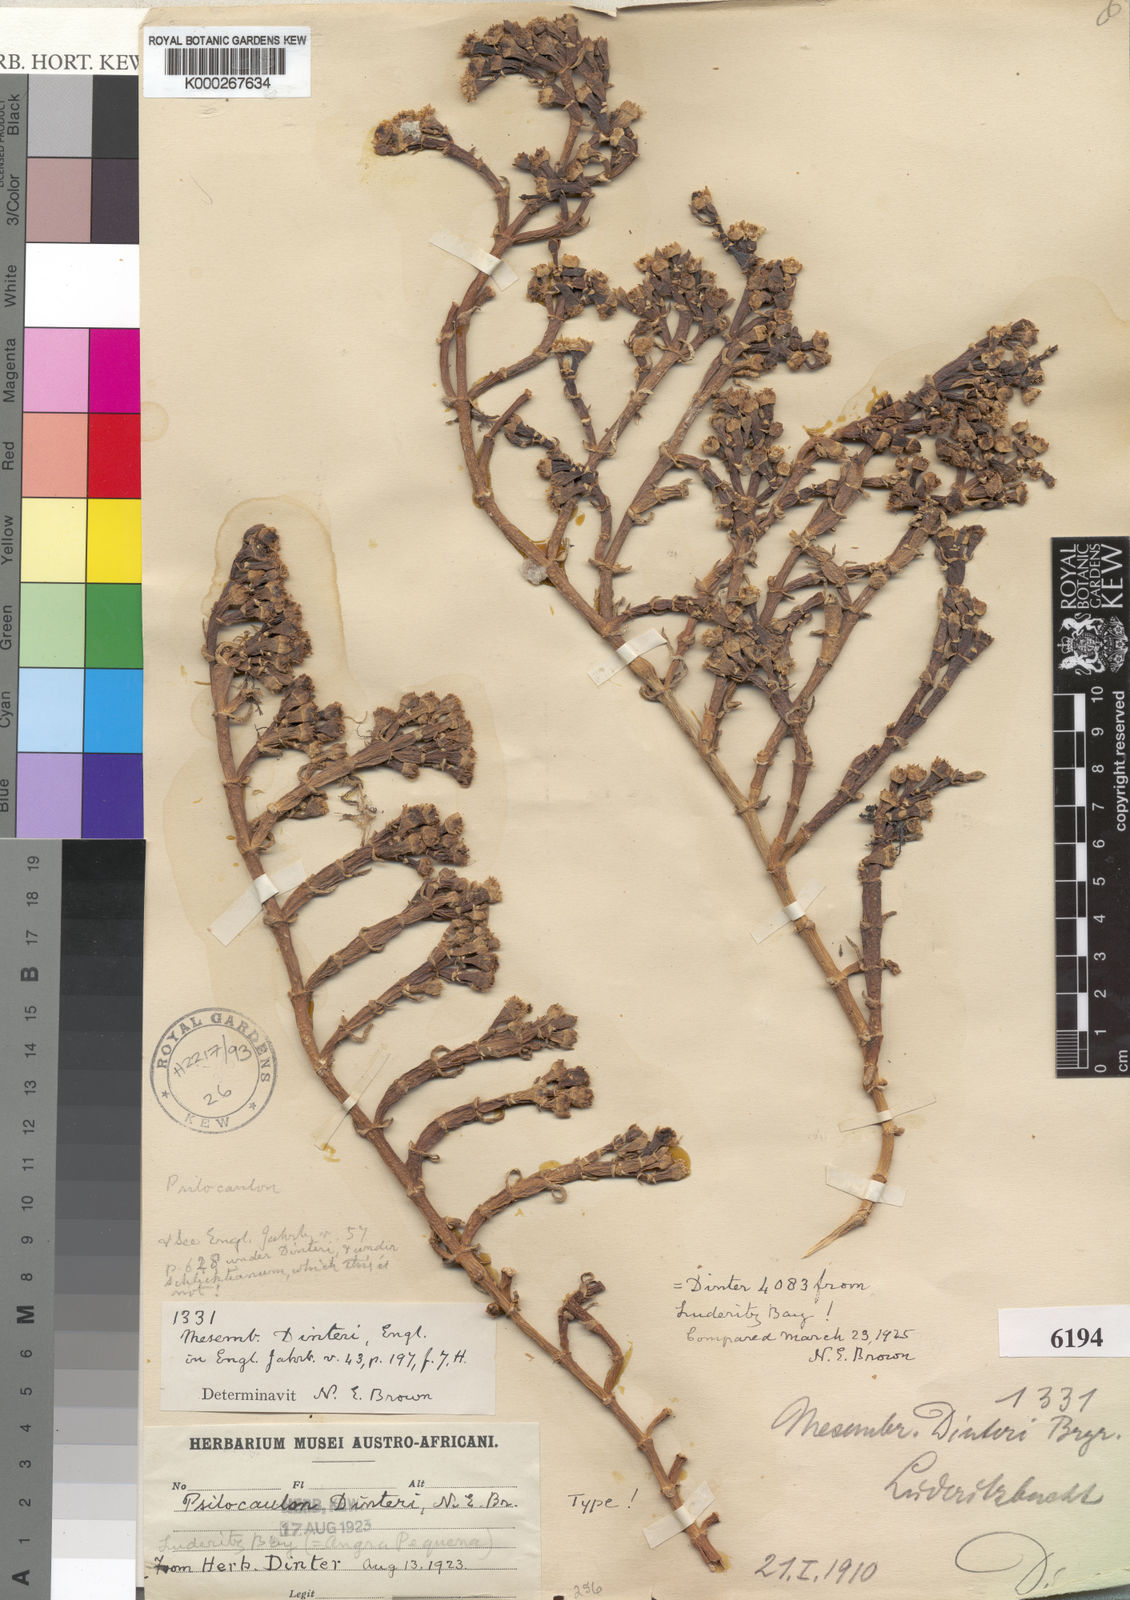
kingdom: Plantae
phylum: Tracheophyta
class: Magnoliopsida
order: Caryophyllales
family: Aizoaceae
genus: Mesembryanthemum
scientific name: Mesembryanthemum
